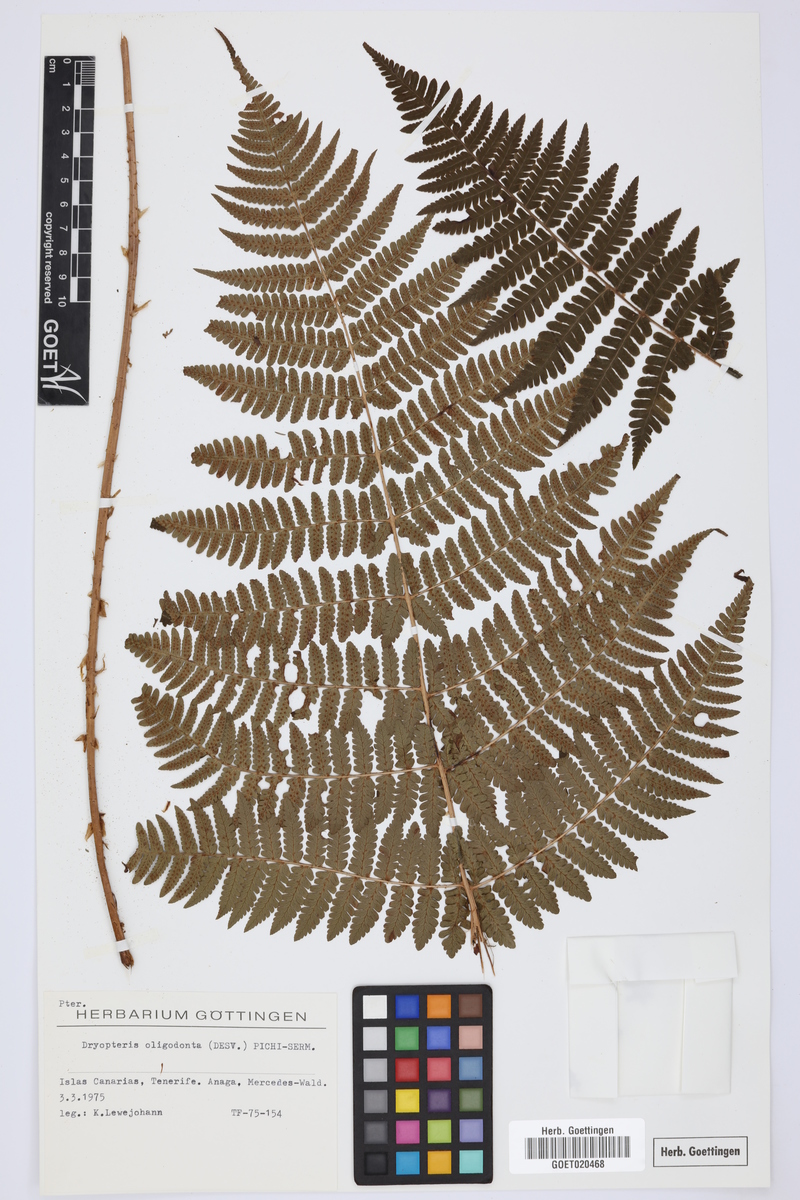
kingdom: Plantae
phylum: Tracheophyta
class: Polypodiopsida
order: Polypodiales
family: Dryopteridaceae
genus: Dryopteris
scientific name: Dryopteris oligodonta
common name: Canarian male-fern
